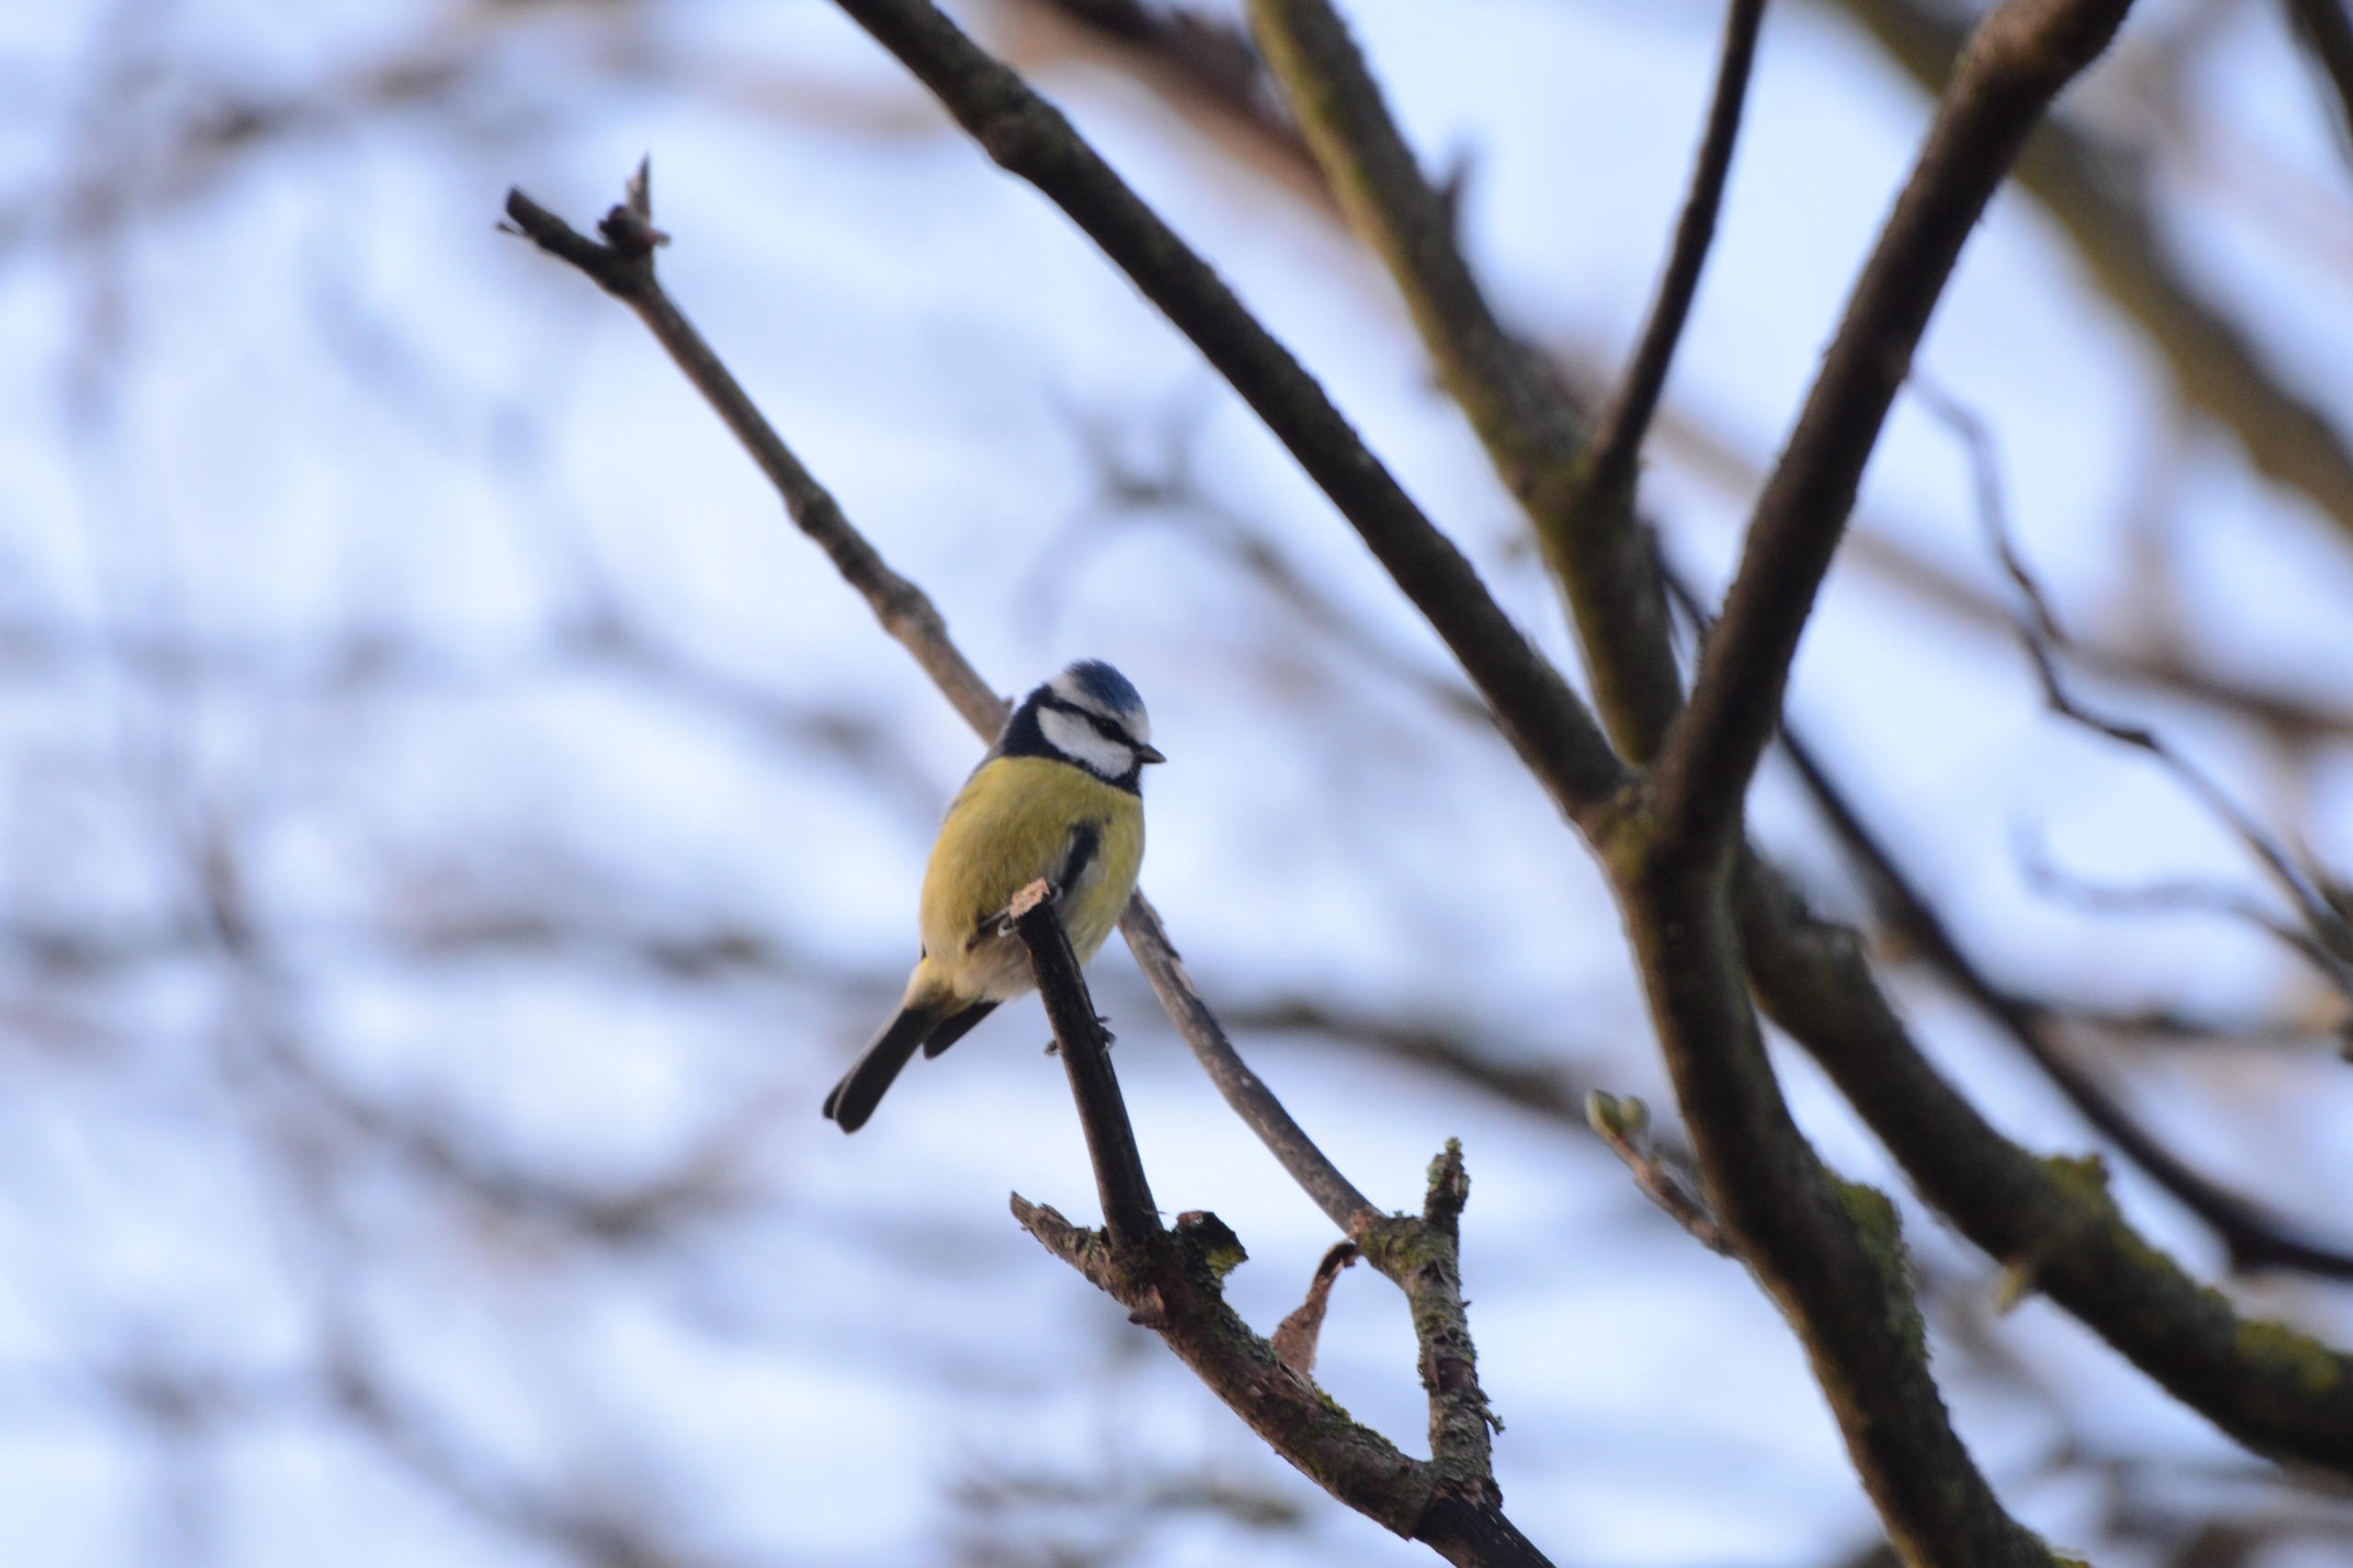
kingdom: Animalia
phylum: Chordata
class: Aves
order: Passeriformes
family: Paridae
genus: Cyanistes
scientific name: Cyanistes caeruleus
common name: Blåmejse
